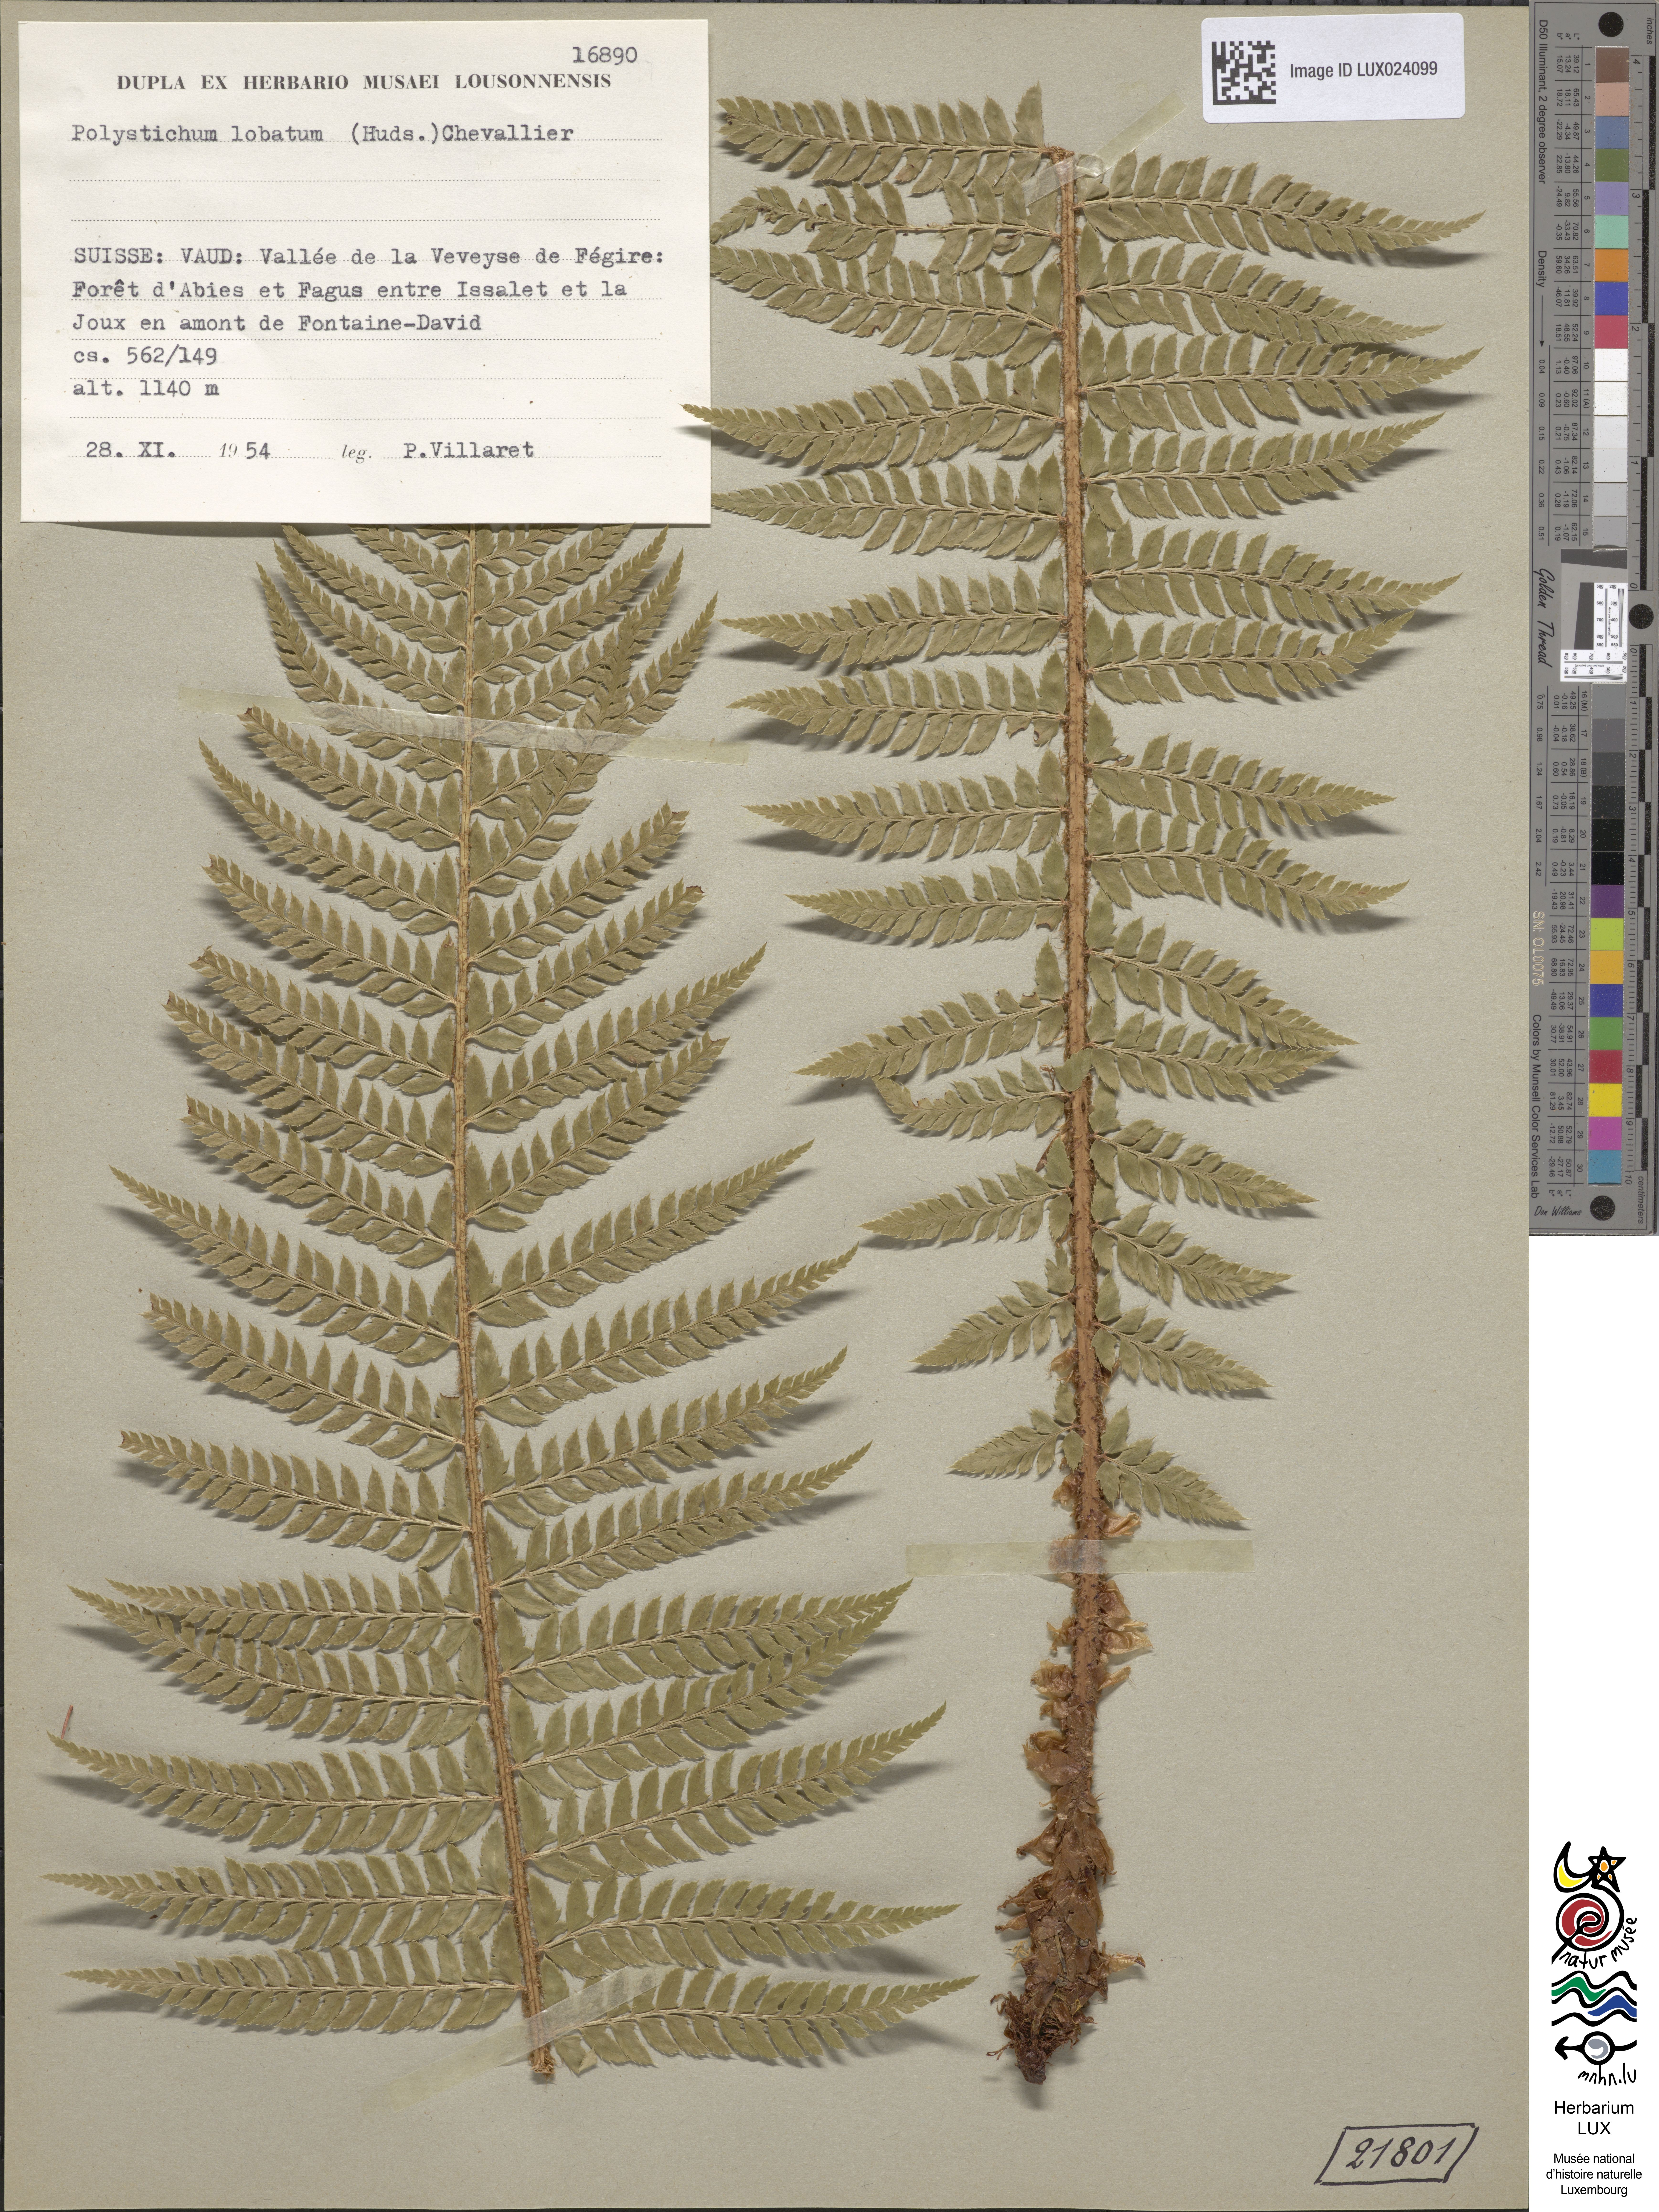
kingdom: Plantae
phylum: Tracheophyta
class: Polypodiopsida
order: Polypodiales
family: Dryopteridaceae
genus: Polystichum
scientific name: Polystichum aculeatum
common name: Hard shield-fern
